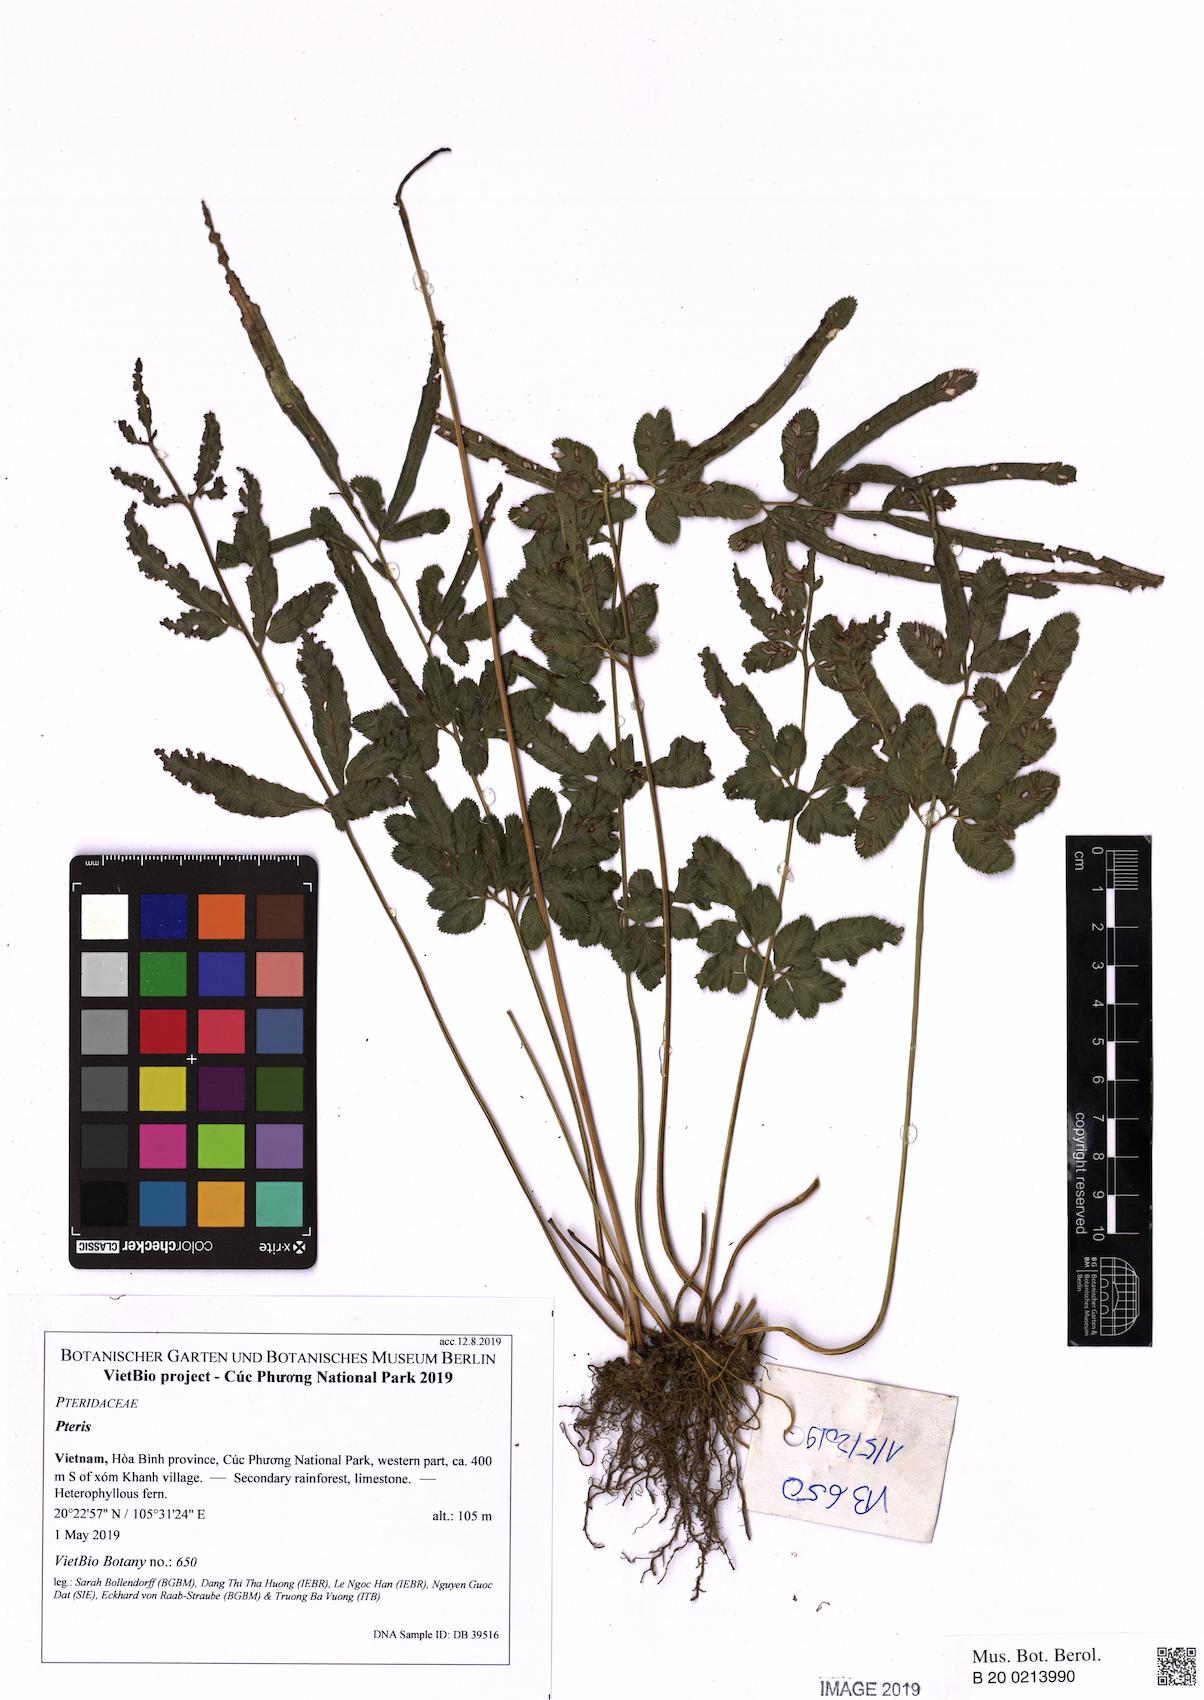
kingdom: Plantae
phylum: Tracheophyta
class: Polypodiopsida
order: Polypodiales
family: Pteridaceae
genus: Pteris
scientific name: Pteris ensiformis
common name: Sword brake
